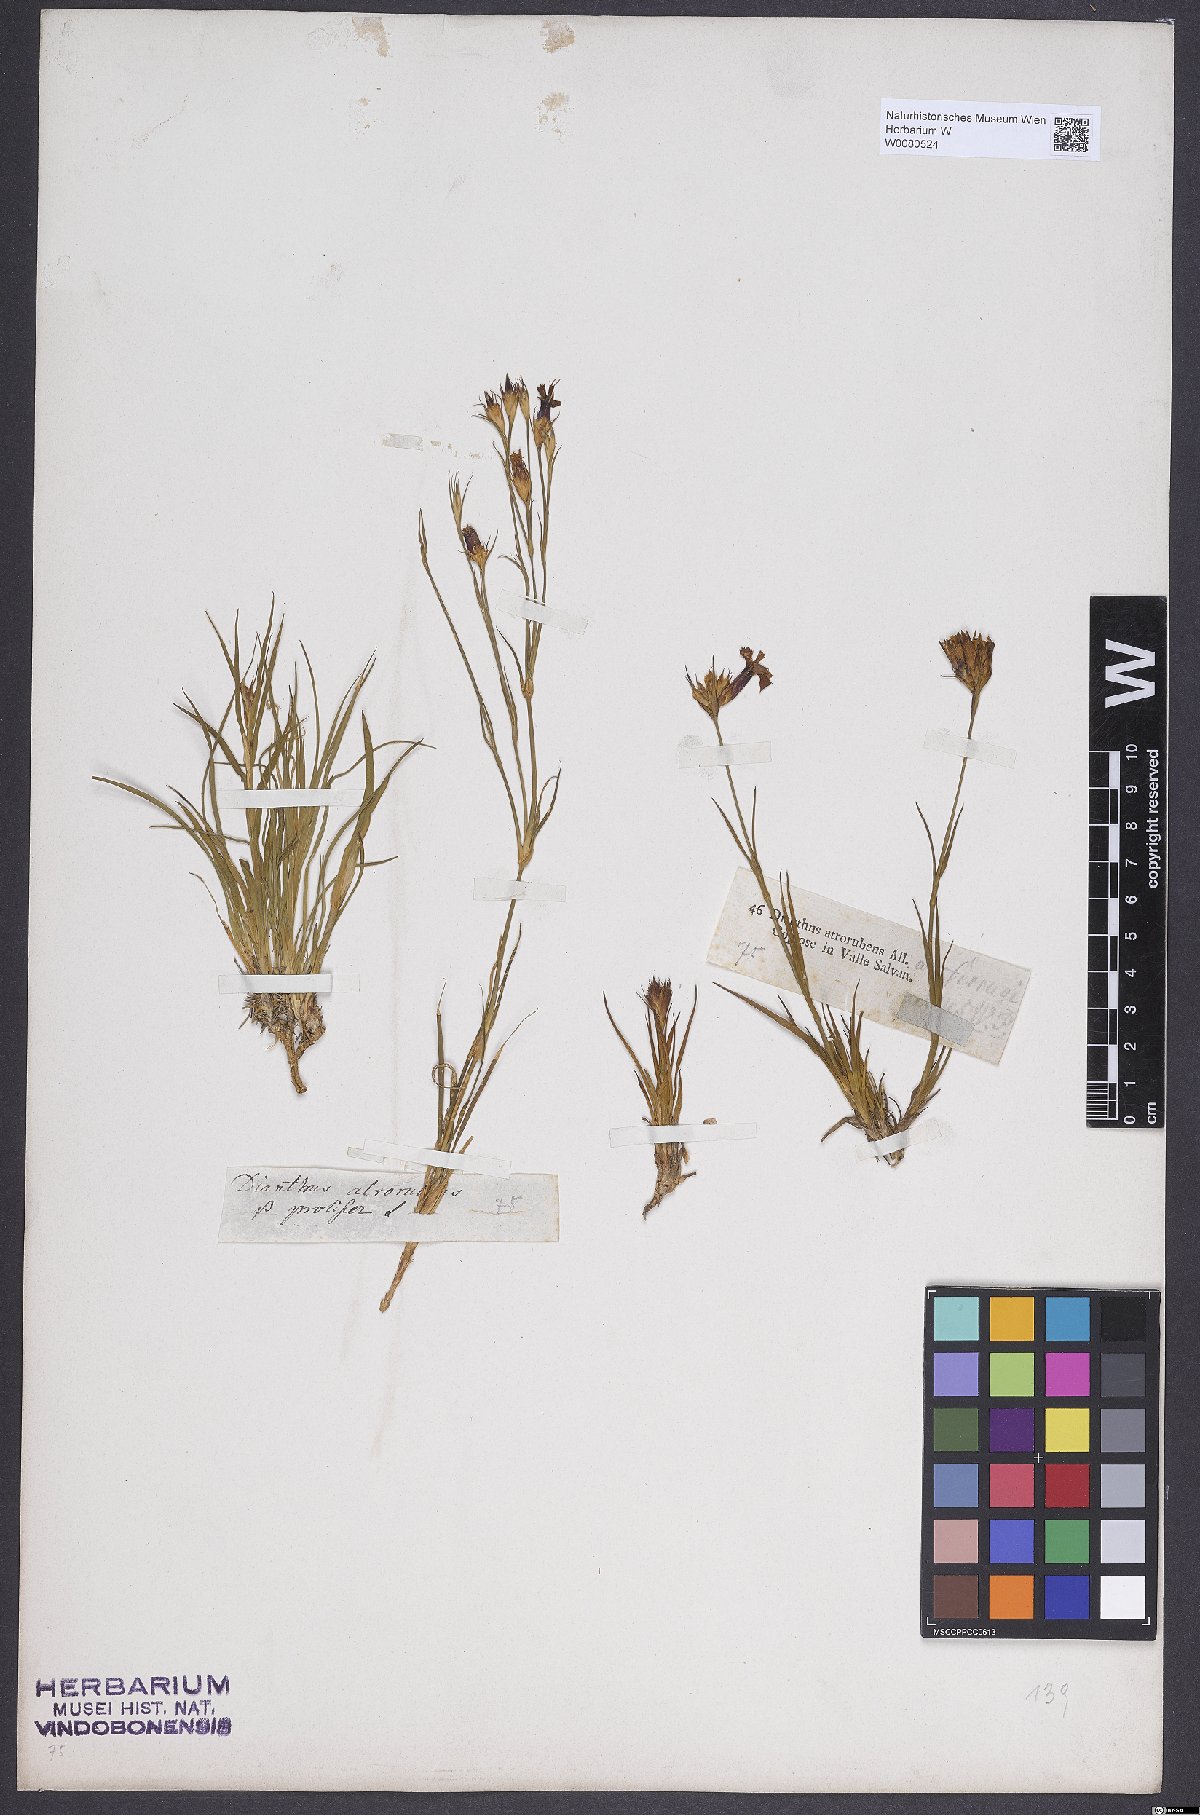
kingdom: Plantae
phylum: Tracheophyta
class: Magnoliopsida
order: Caryophyllales
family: Caryophyllaceae
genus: Dianthus
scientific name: Dianthus carthusianorum
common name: Carthusian pink
